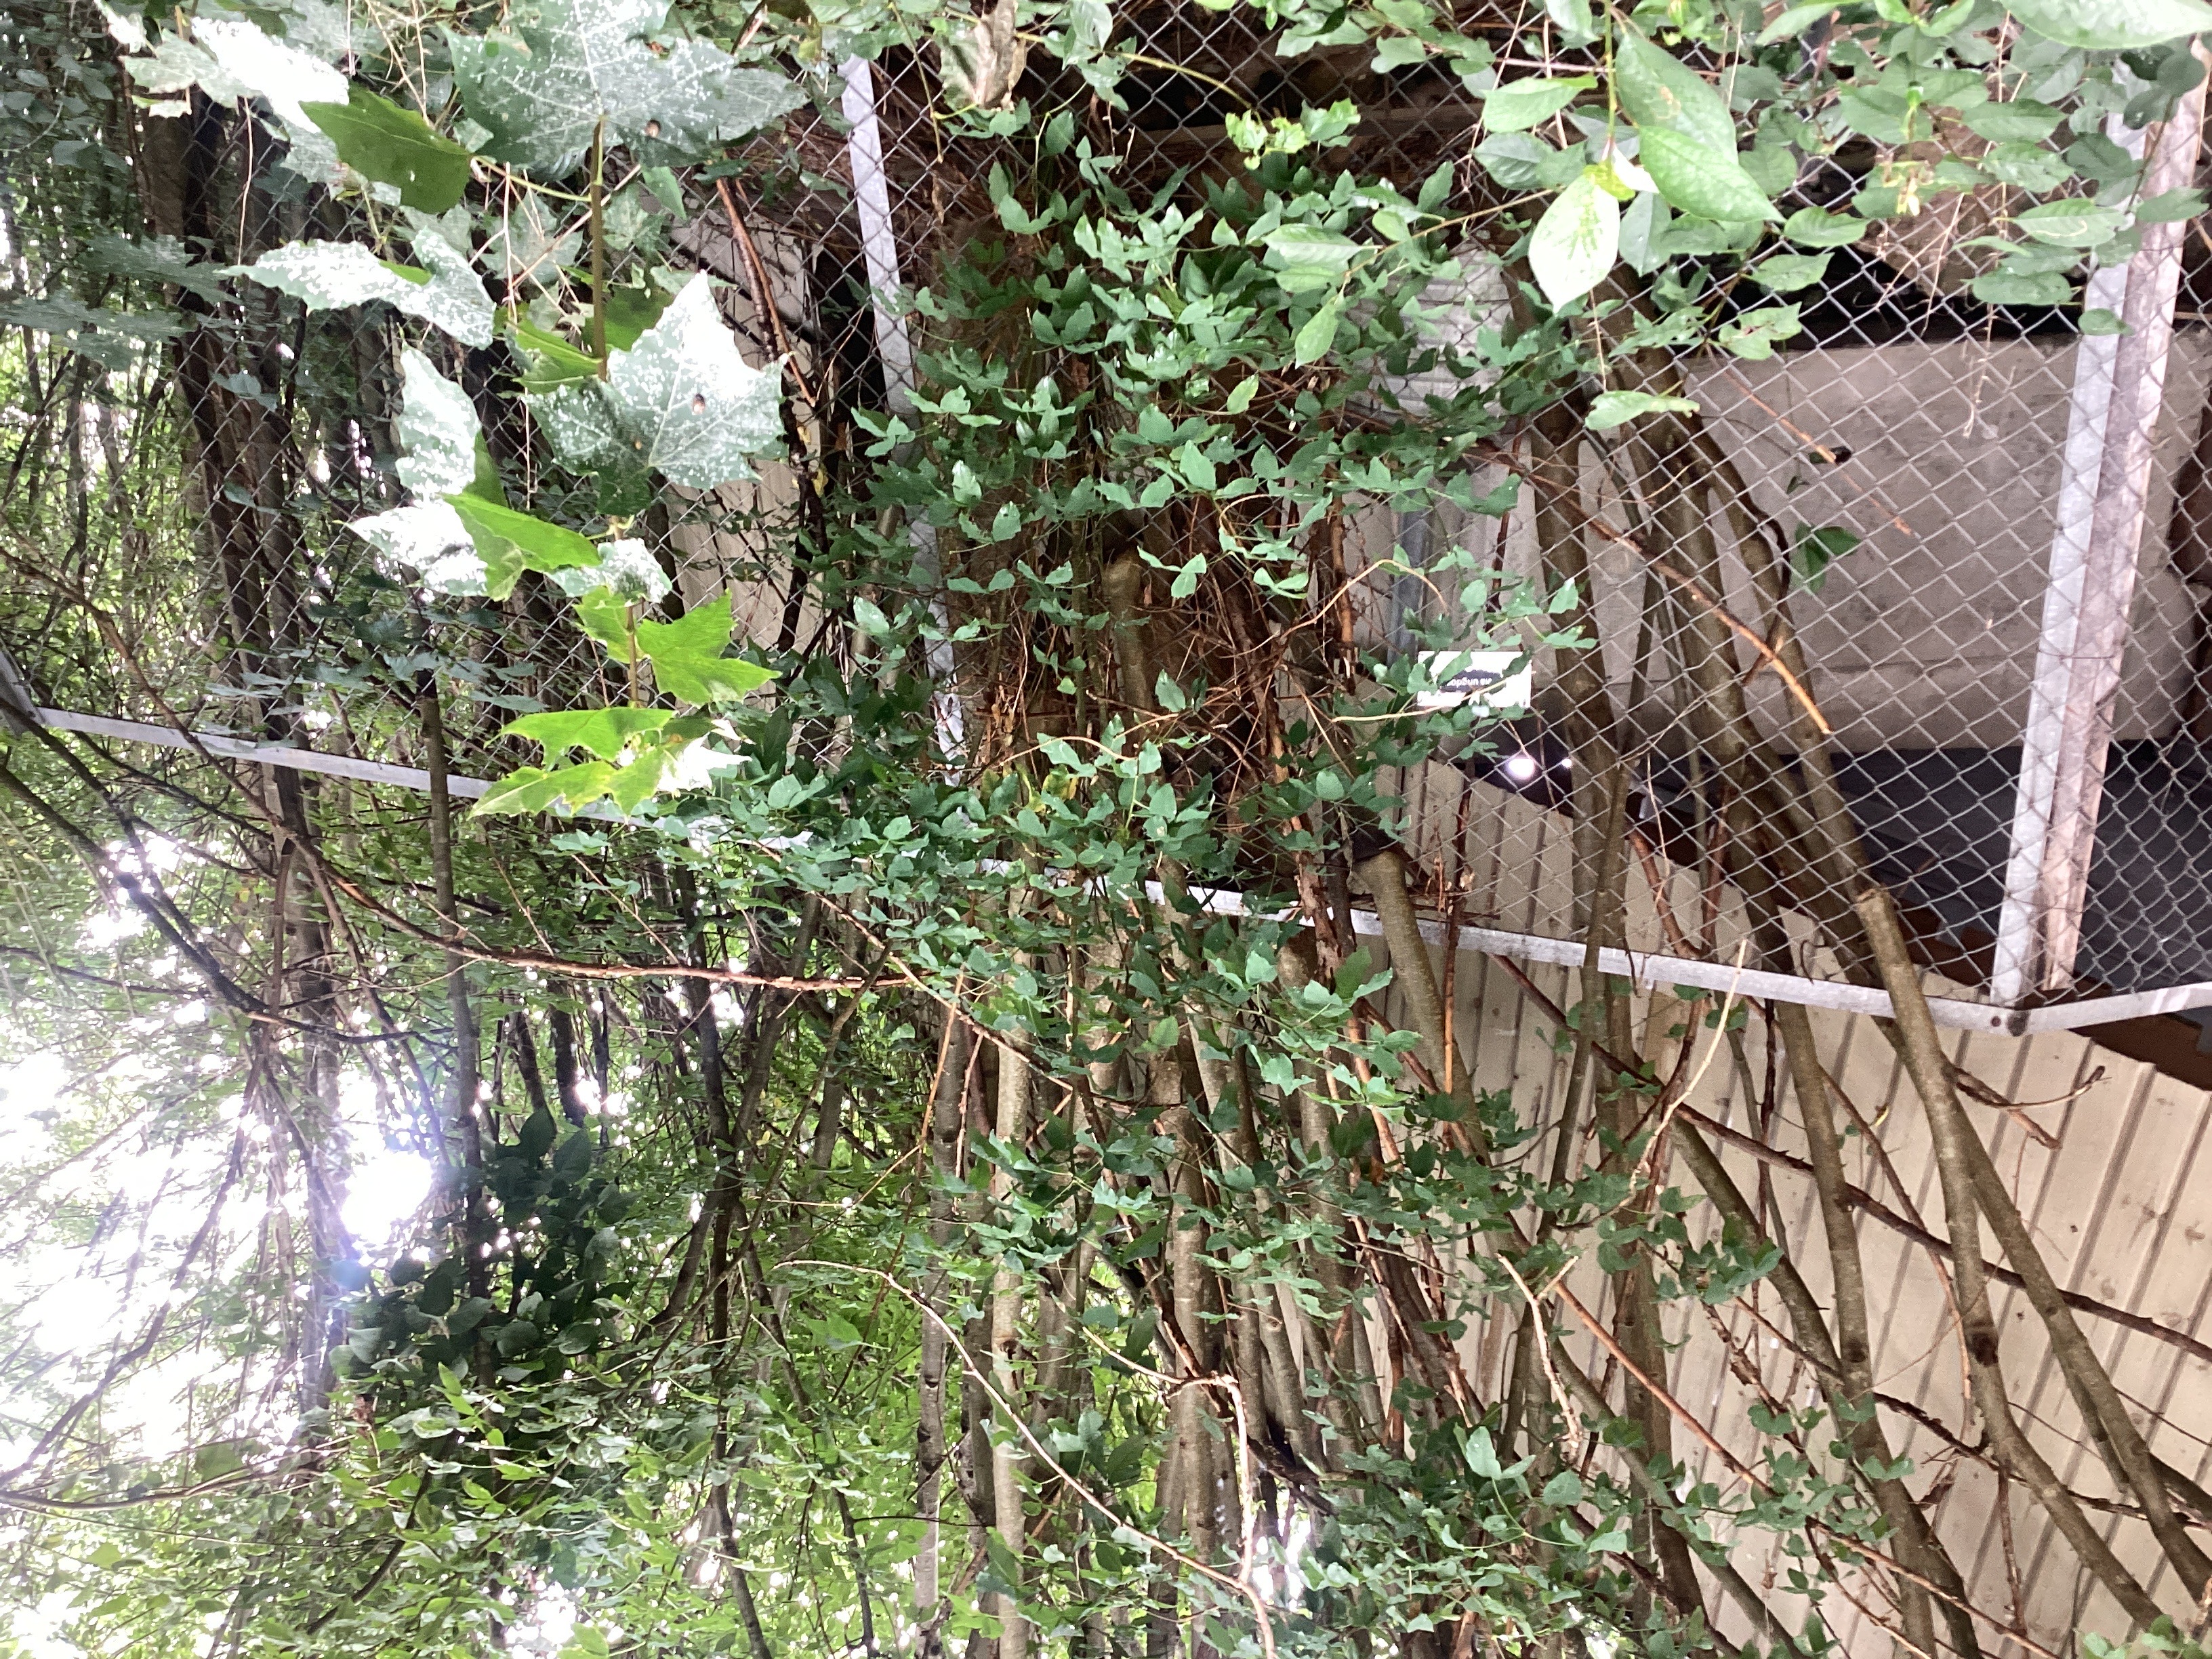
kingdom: Plantae
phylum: Tracheophyta
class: Magnoliopsida
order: Fabales
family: Fabaceae
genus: Laburnum
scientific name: Laburnum anagyroides
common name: gullregn
